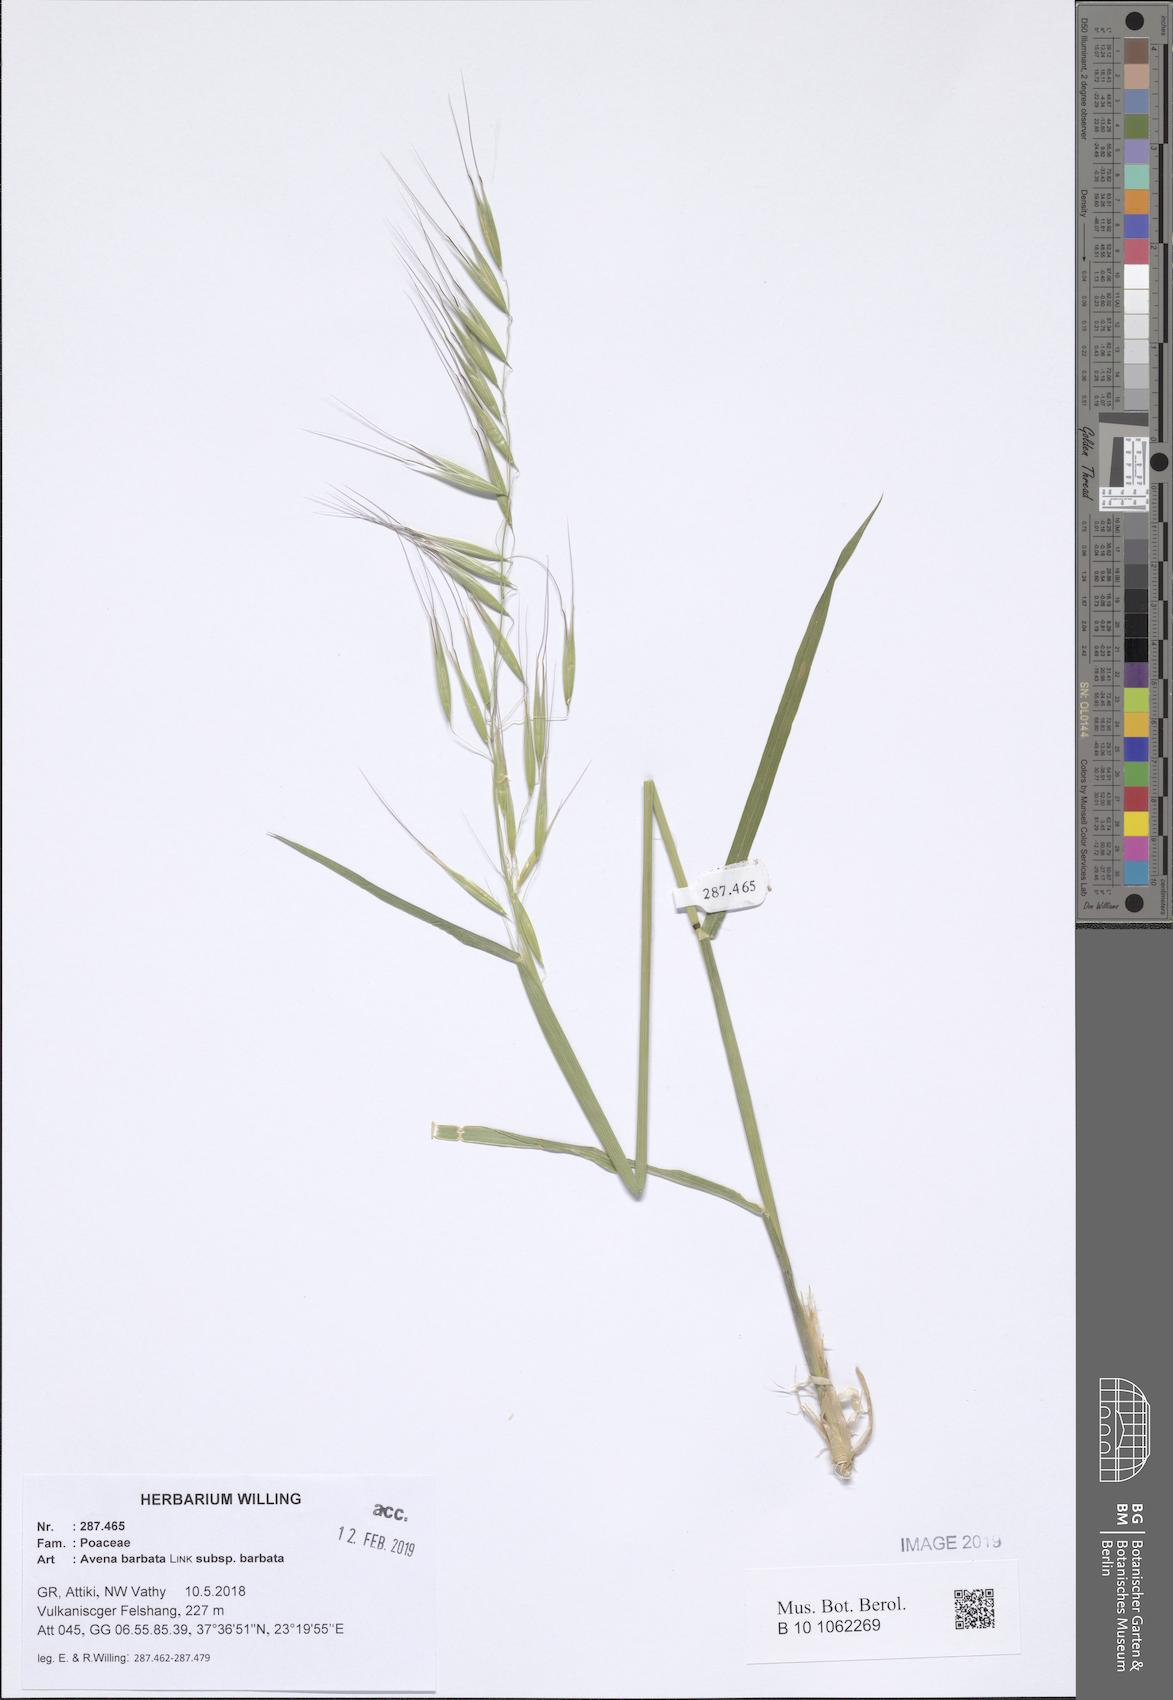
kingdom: Plantae
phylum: Tracheophyta
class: Liliopsida
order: Poales
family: Poaceae
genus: Avena
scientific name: Avena barbata
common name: Slender oat
